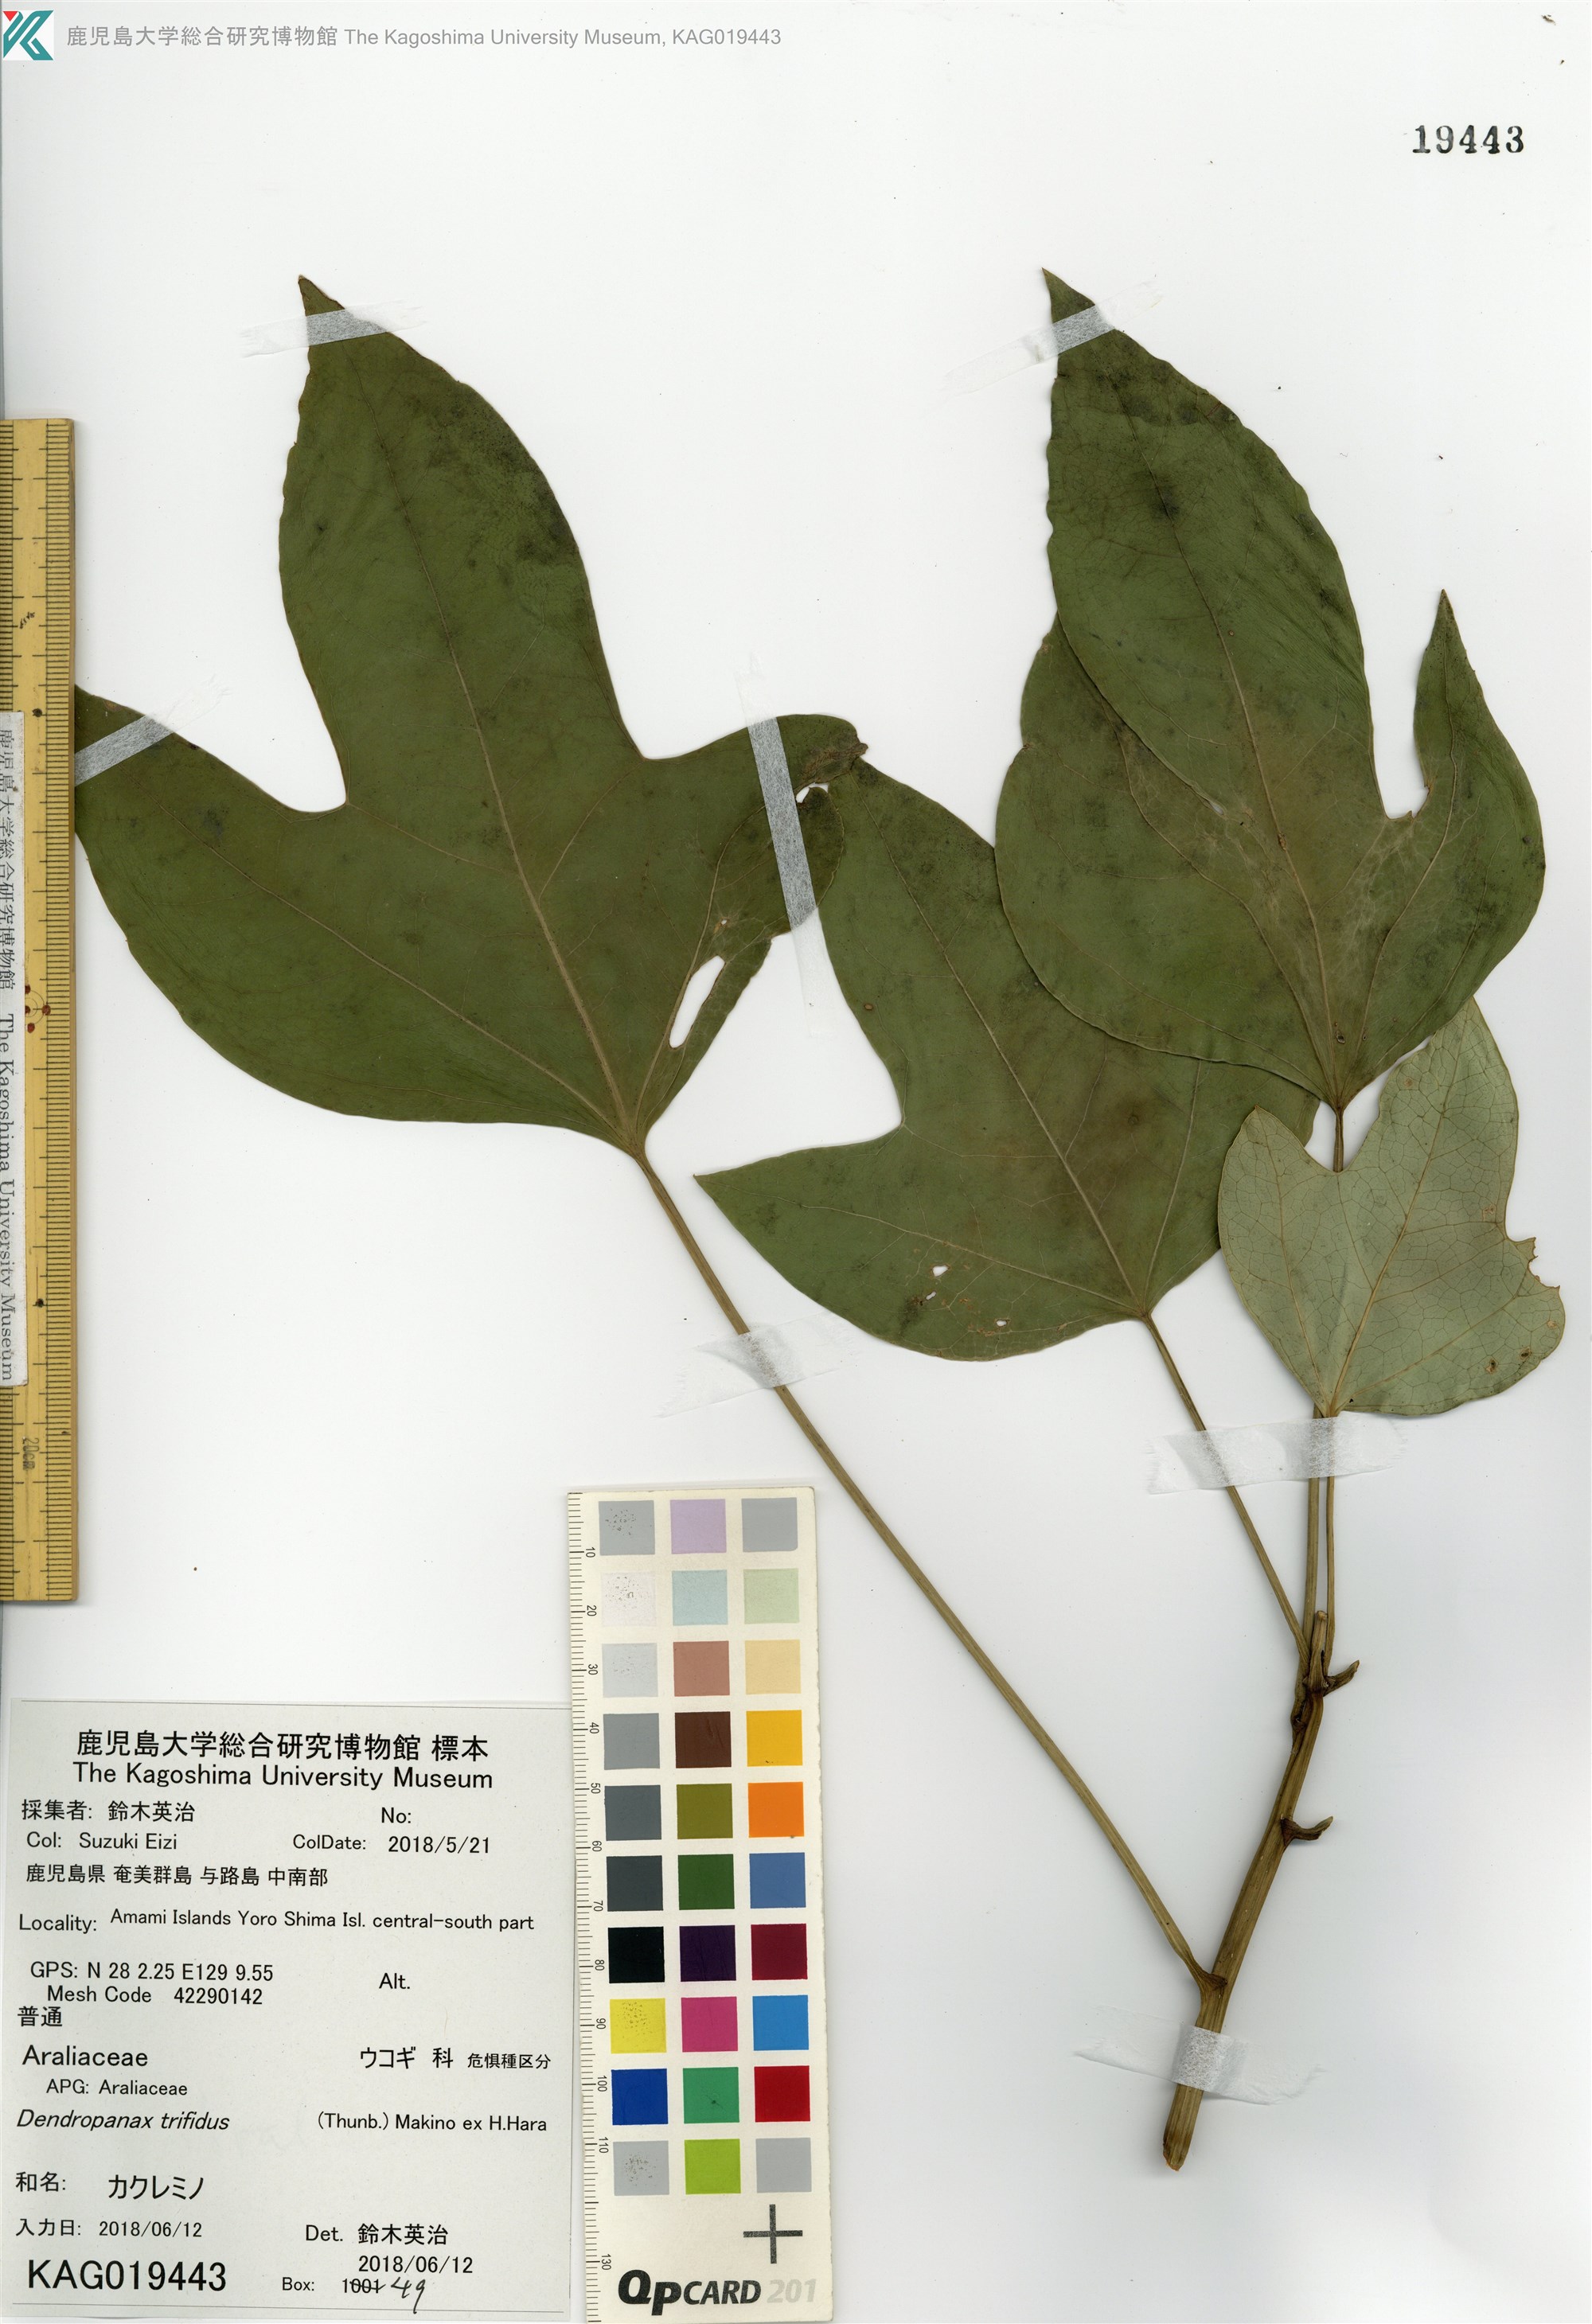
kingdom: Plantae
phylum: Tracheophyta
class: Magnoliopsida
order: Apiales
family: Araliaceae
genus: Dendropanax
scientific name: Dendropanax trifidus
